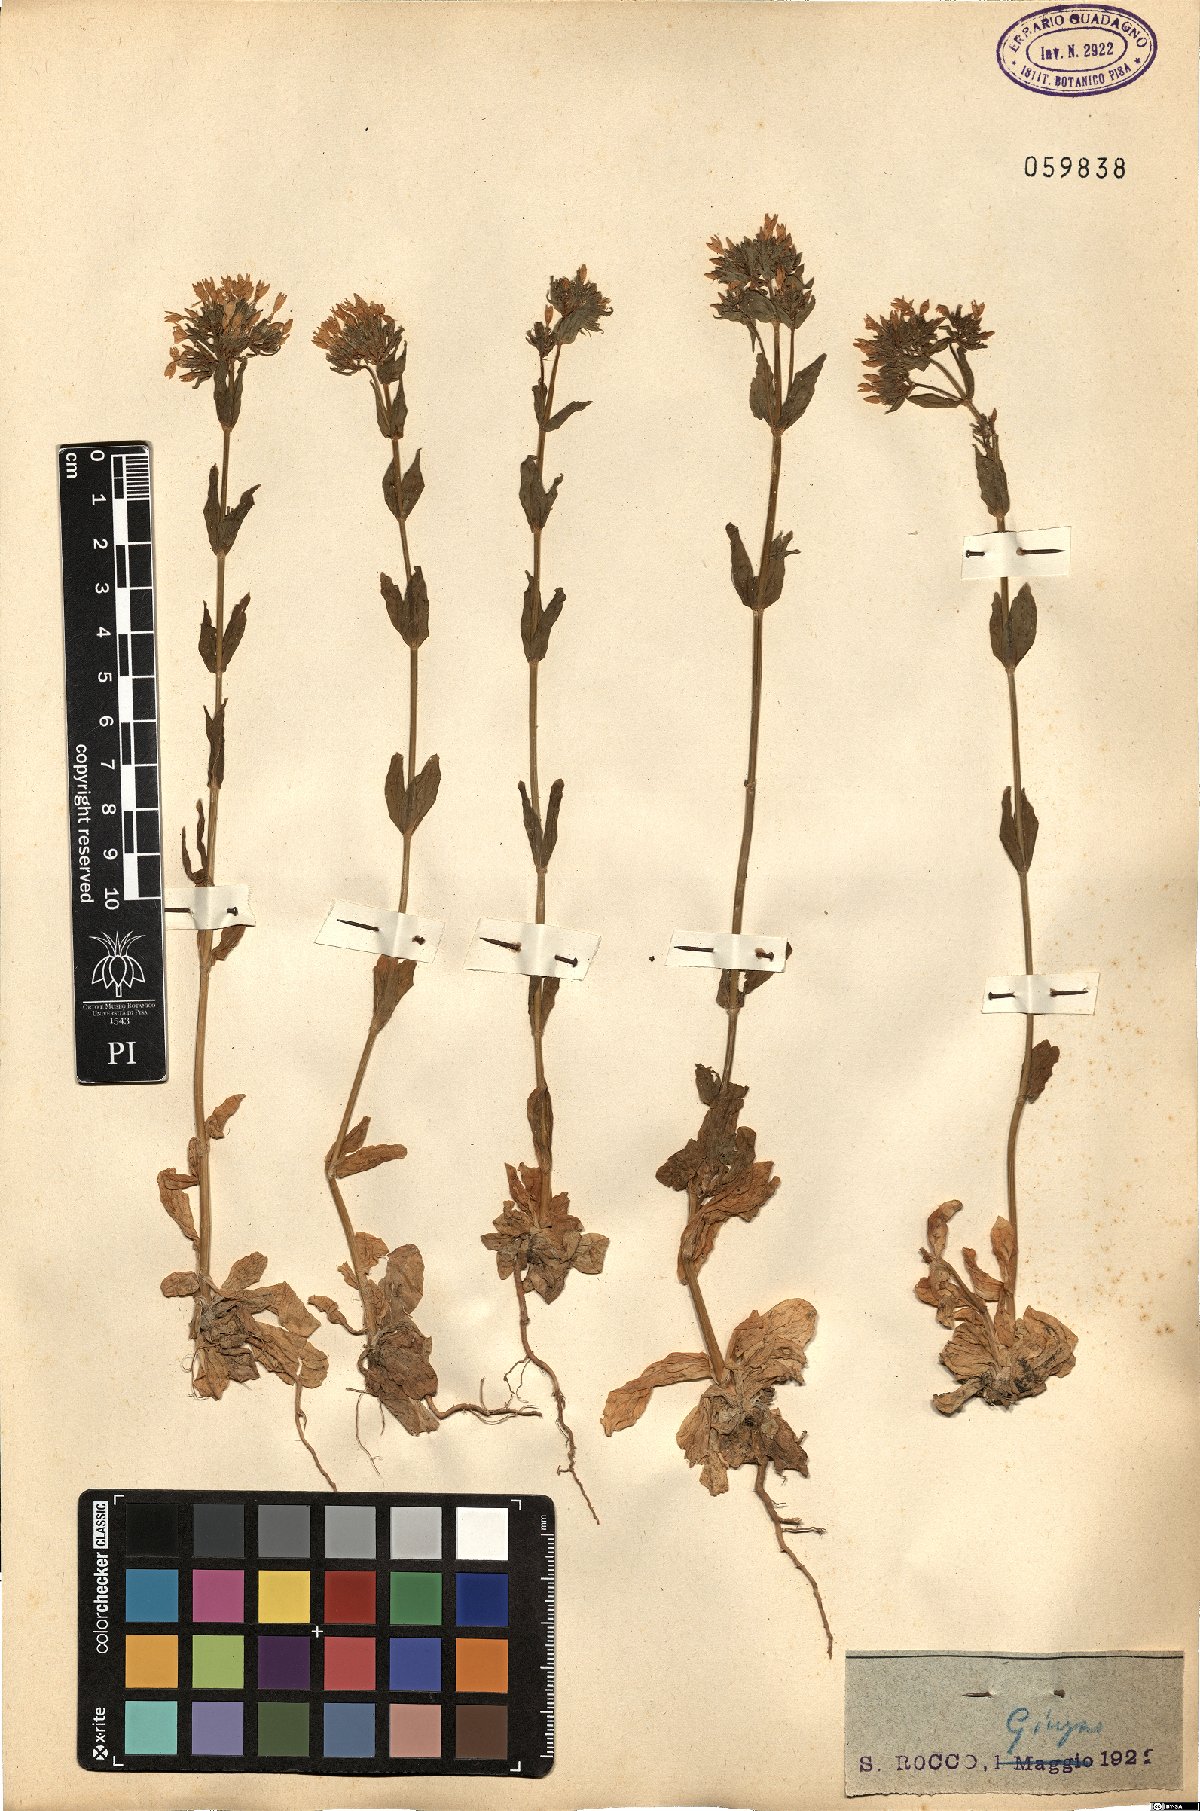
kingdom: Plantae
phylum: Tracheophyta
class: Magnoliopsida
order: Gentianales
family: Gentianaceae
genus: Centaurium
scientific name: Centaurium erythraea
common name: Common centaury
